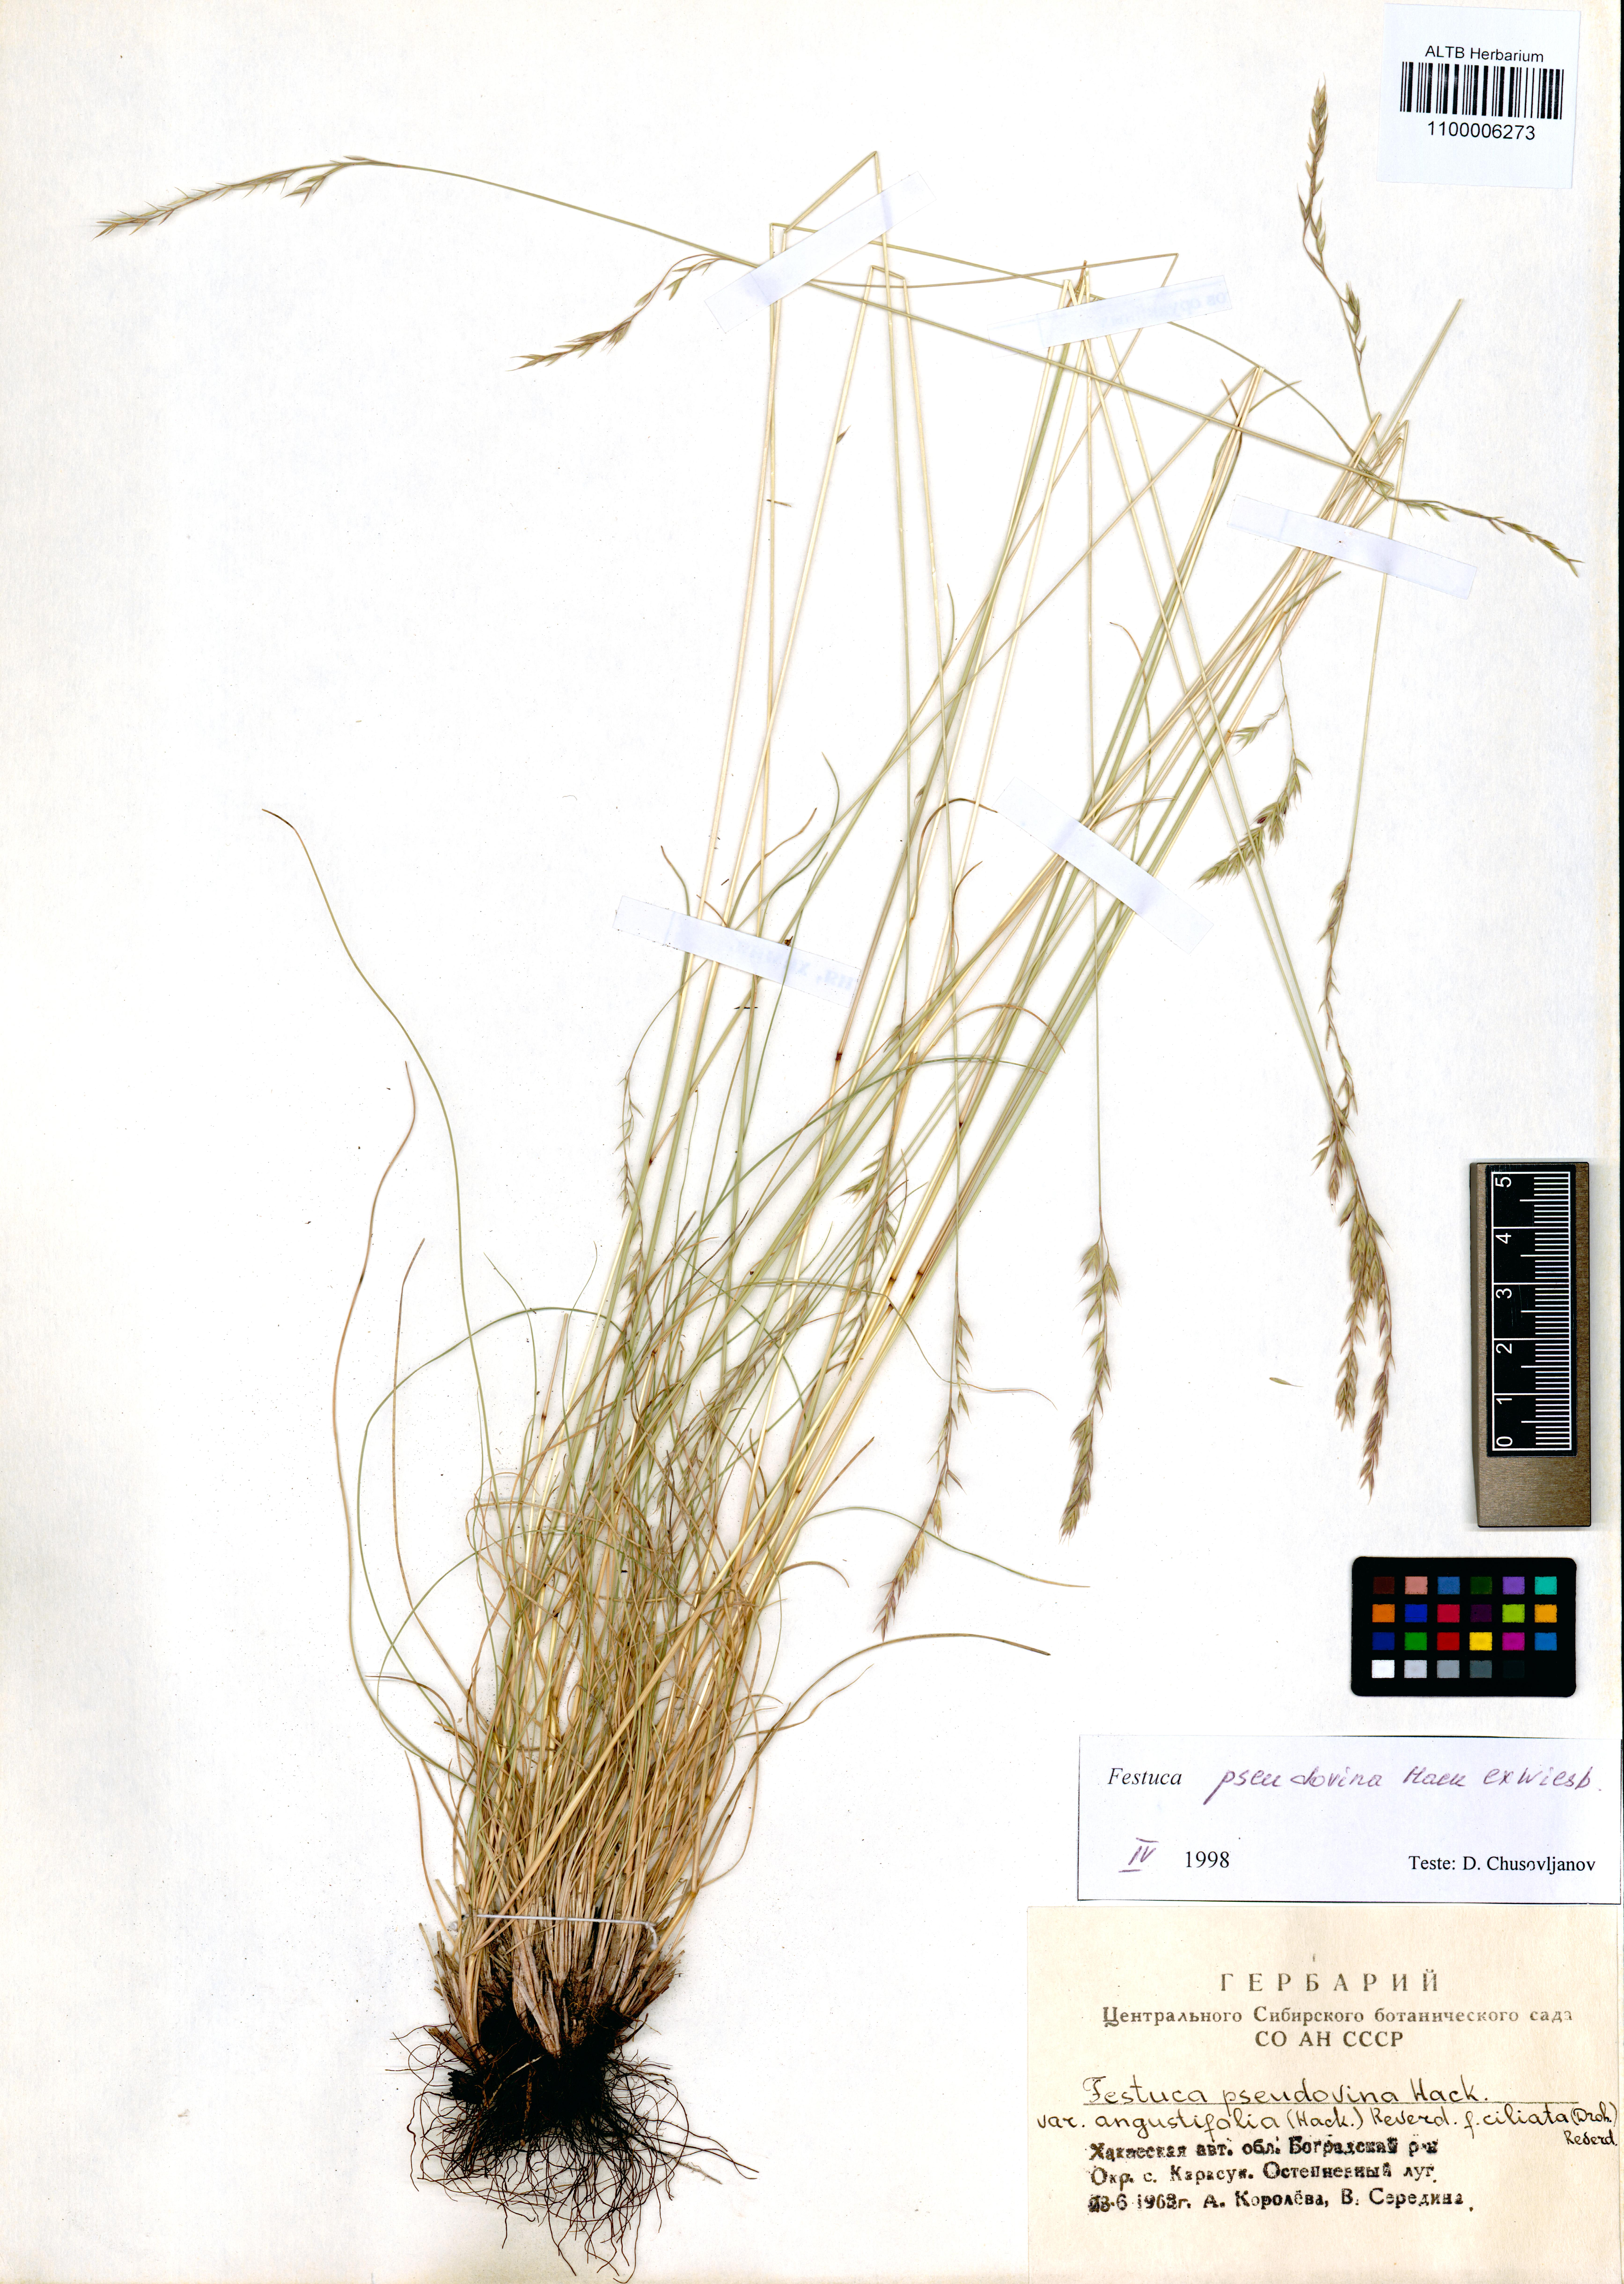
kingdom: Plantae
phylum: Tracheophyta
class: Liliopsida
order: Poales
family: Poaceae
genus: Festuca
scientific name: Festuca pulchra
